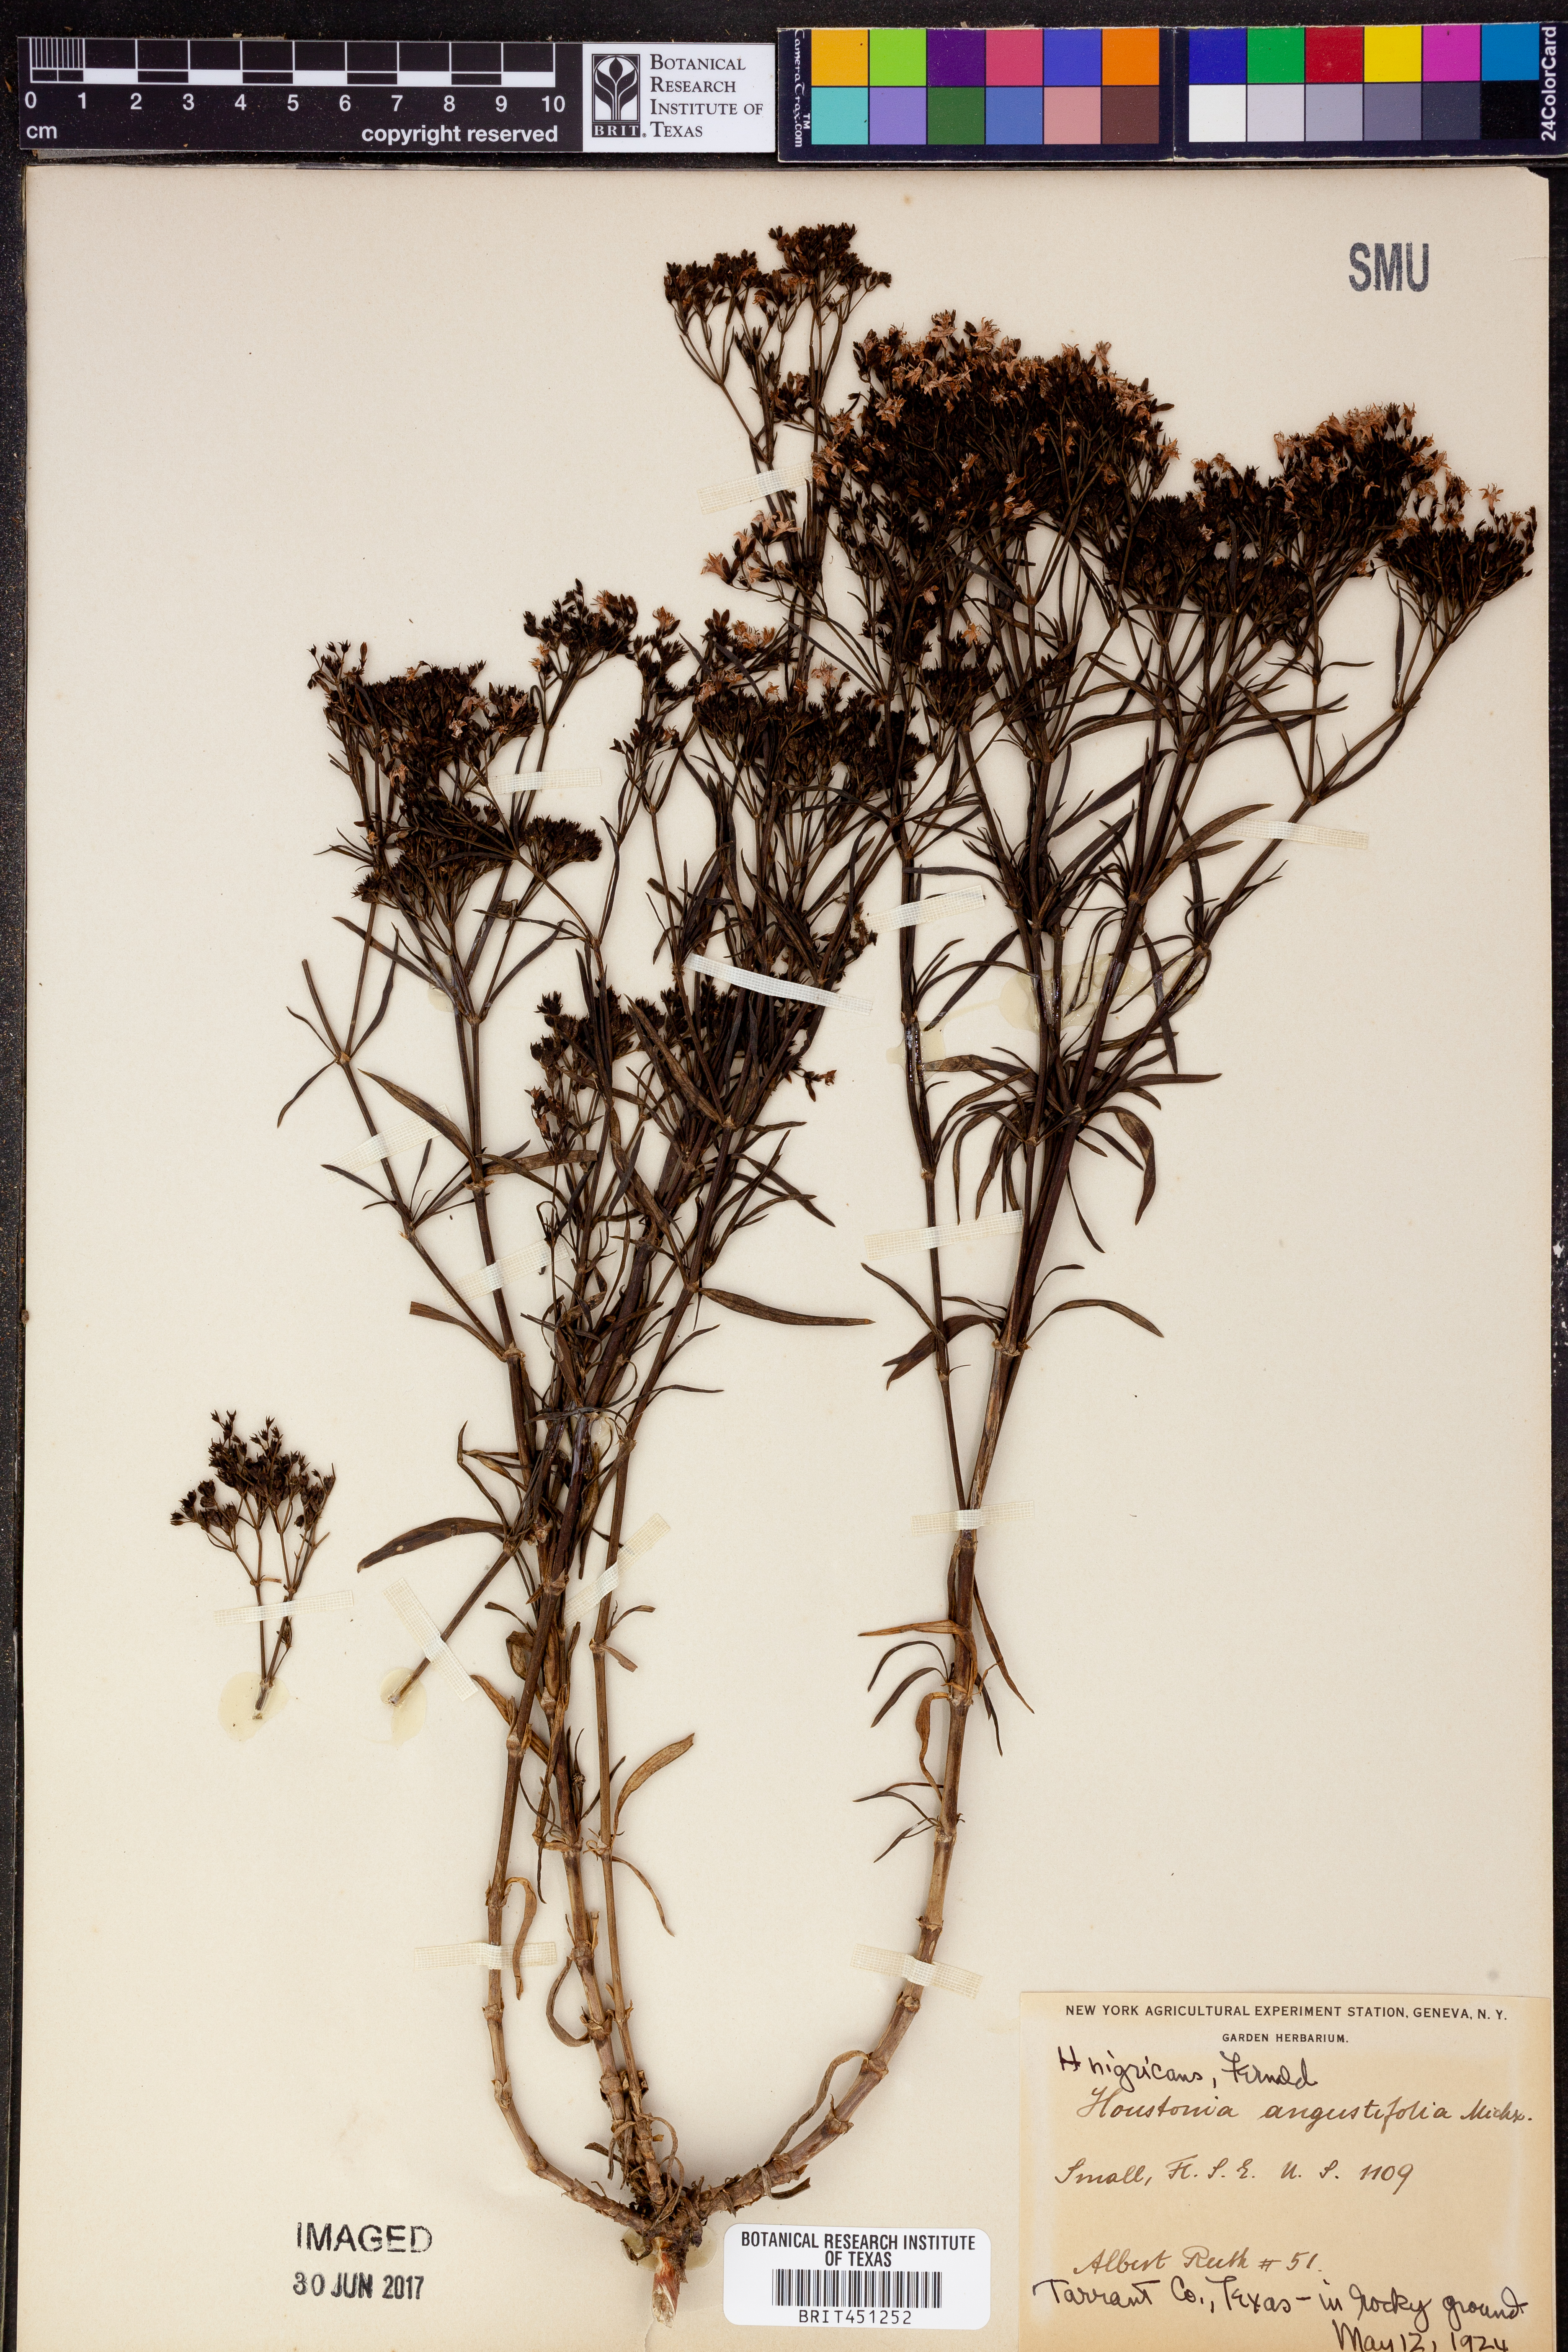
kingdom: Plantae
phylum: Tracheophyta
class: Magnoliopsida
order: Gentianales
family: Rubiaceae
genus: Stenaria
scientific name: Stenaria nigricans
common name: Diamondflowers
